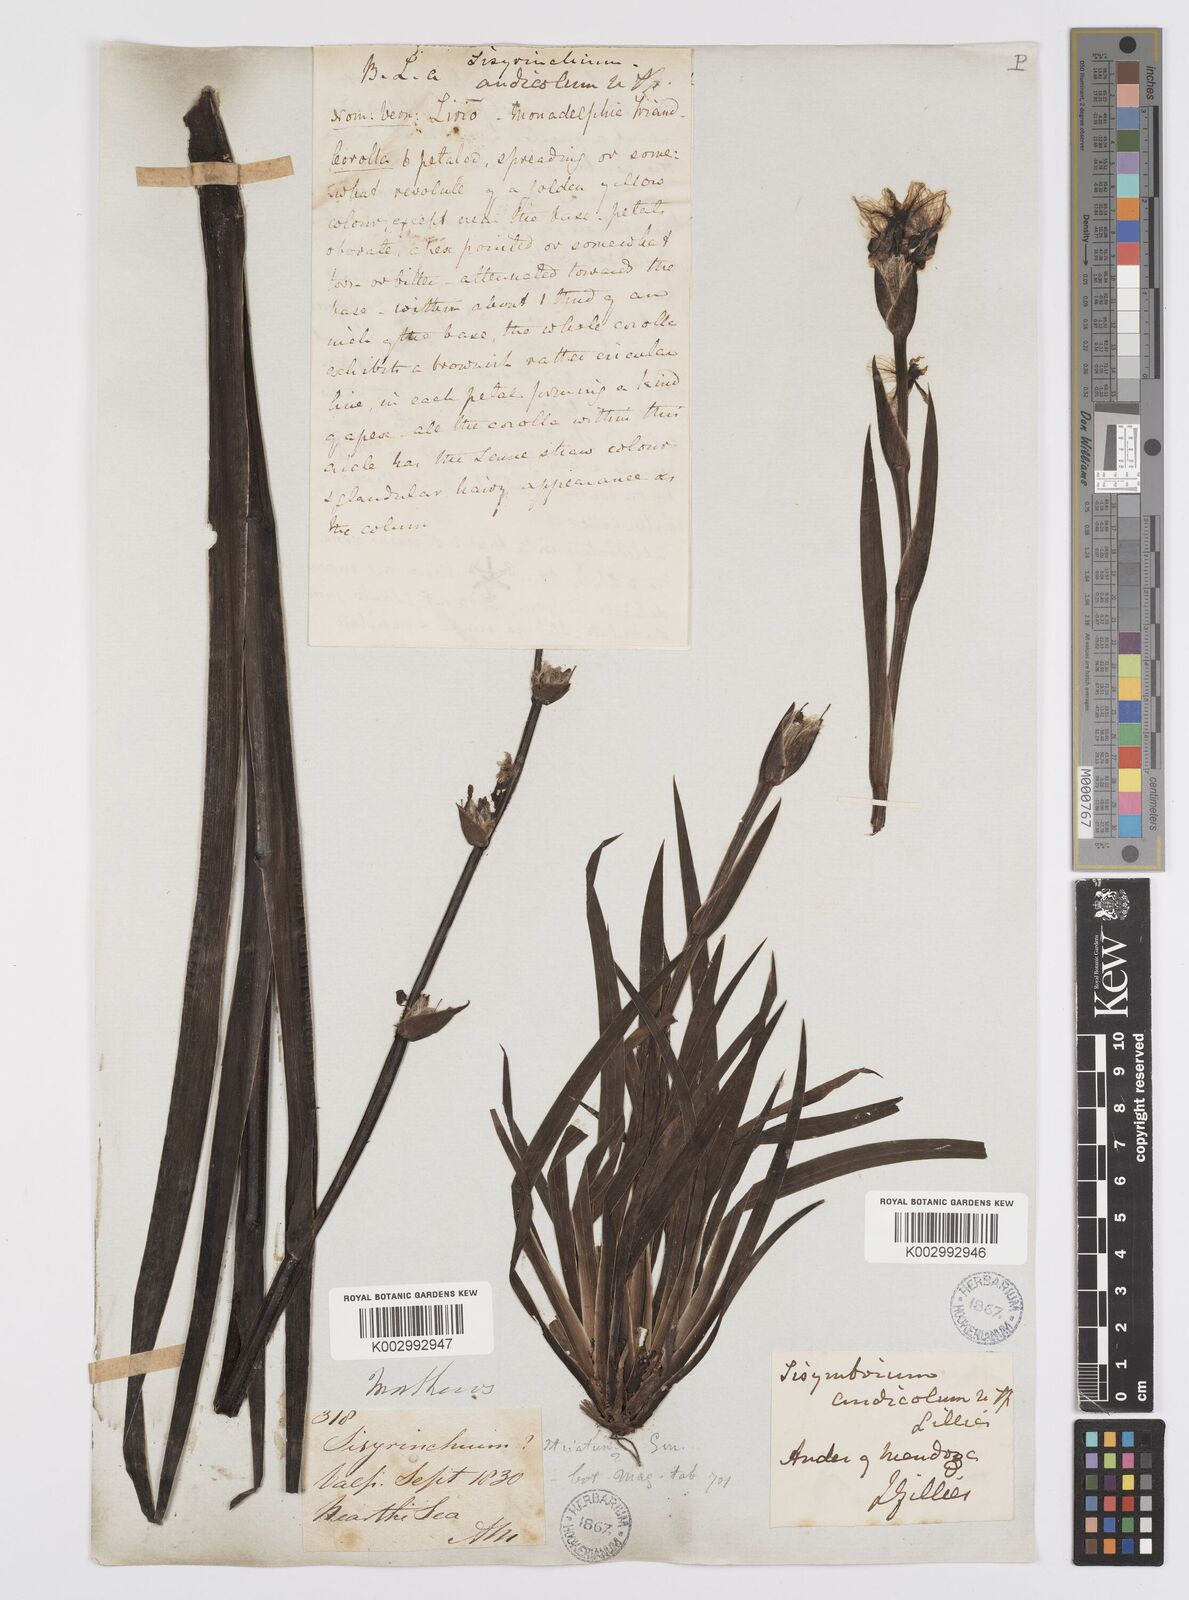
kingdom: Plantae
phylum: Tracheophyta
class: Liliopsida
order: Asparagales
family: Iridaceae
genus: Sisyrinchium
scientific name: Sisyrinchium striatum
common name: Pale yellow-eyed-grass
